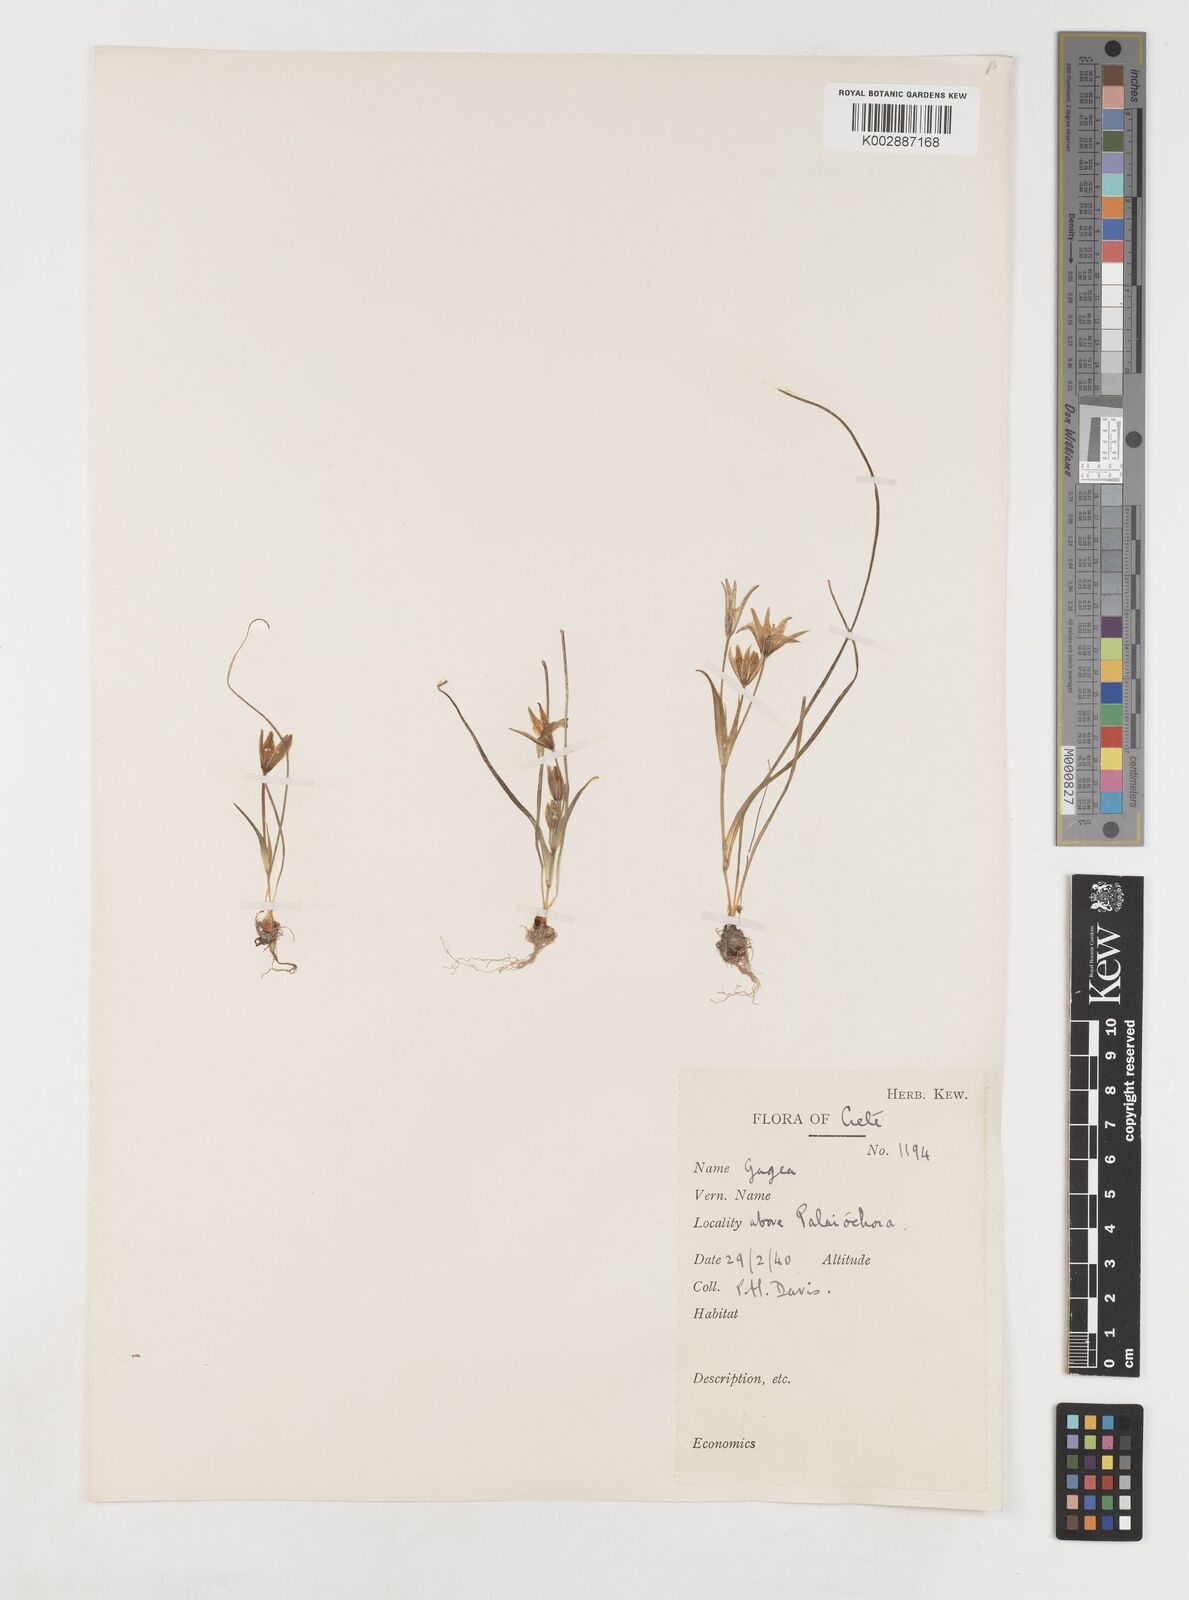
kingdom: Plantae
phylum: Tracheophyta
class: Liliopsida
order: Liliales
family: Liliaceae
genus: Gagea
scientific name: Gagea peduncularis
